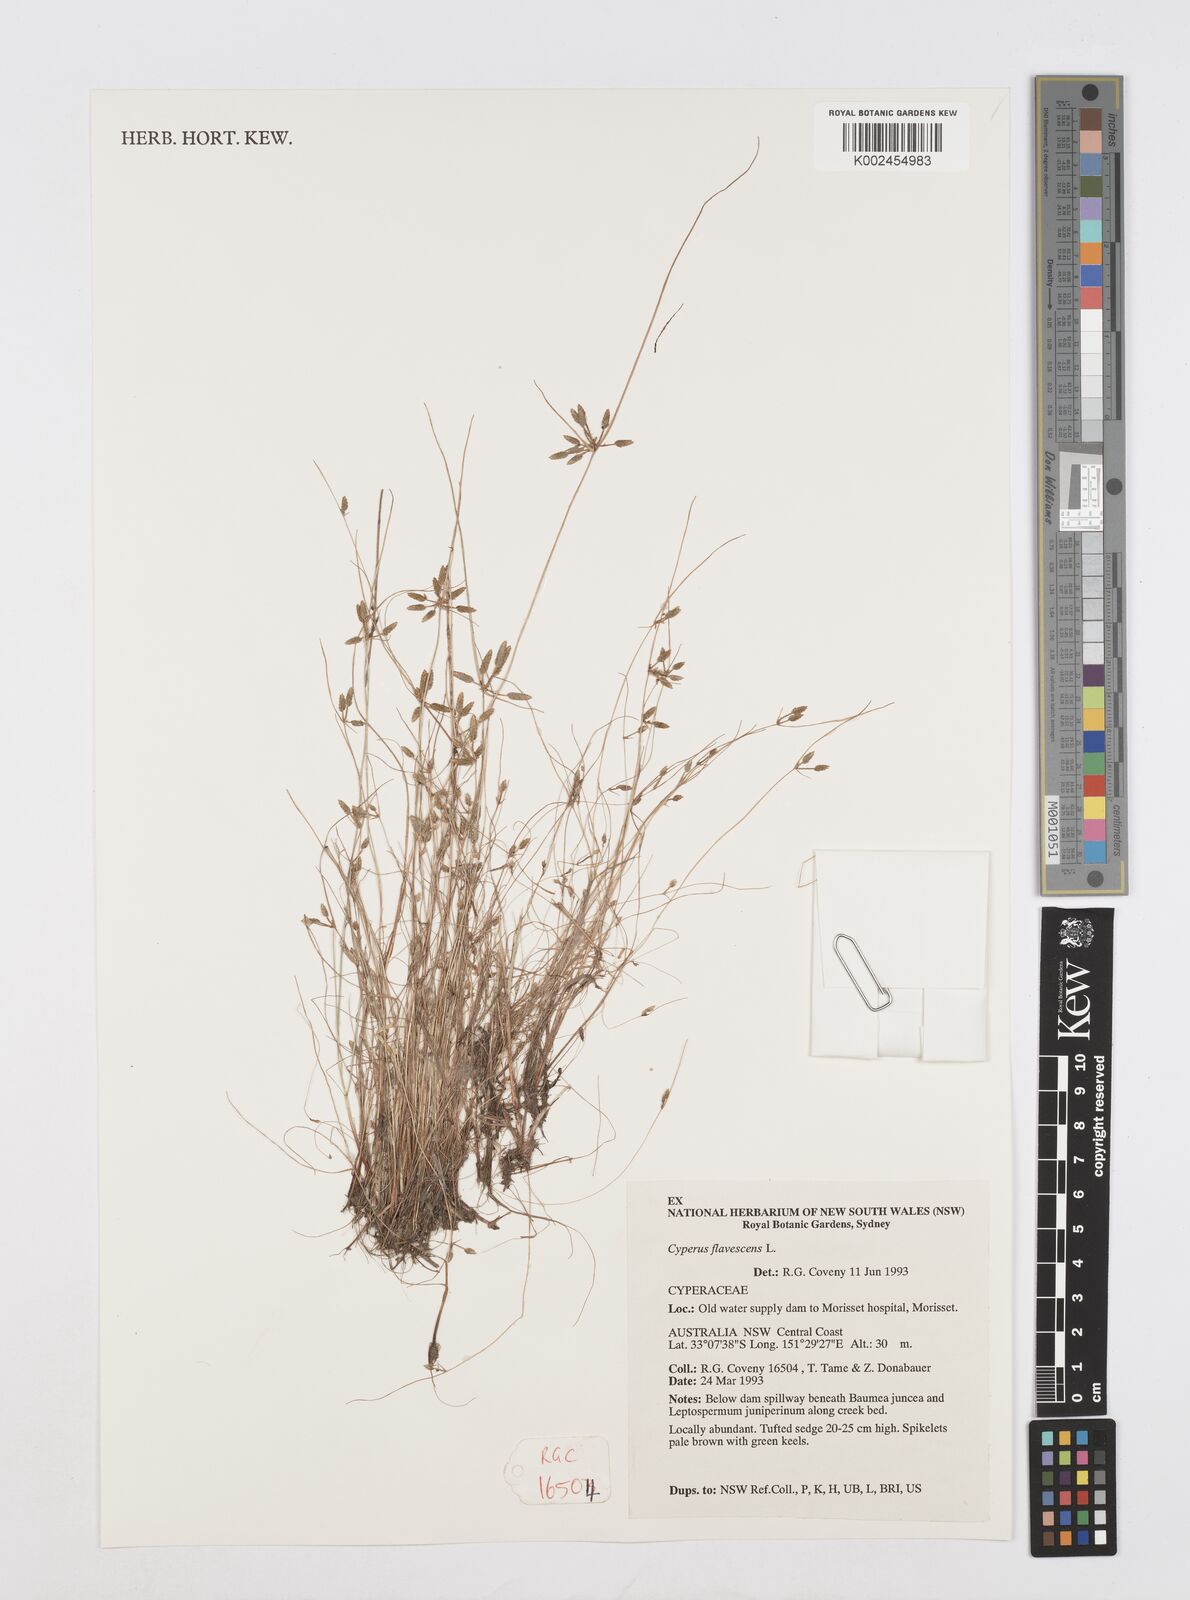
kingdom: Plantae
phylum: Tracheophyta
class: Liliopsida
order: Poales
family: Cyperaceae
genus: Cyperus
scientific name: Cyperus flavescens
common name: Yellow galingale
